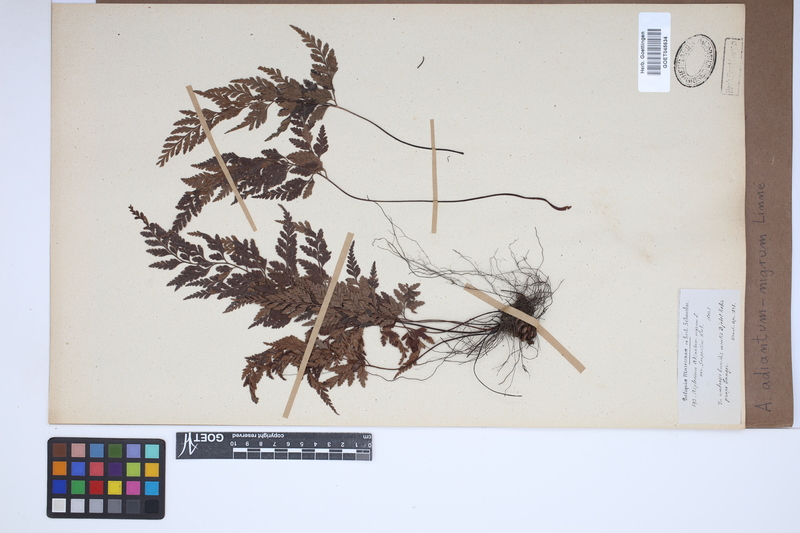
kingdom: Plantae
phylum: Tracheophyta
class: Polypodiopsida
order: Polypodiales
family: Aspleniaceae
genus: Asplenium
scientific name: Asplenium adiantum-nigrum
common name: Black spleenwort
